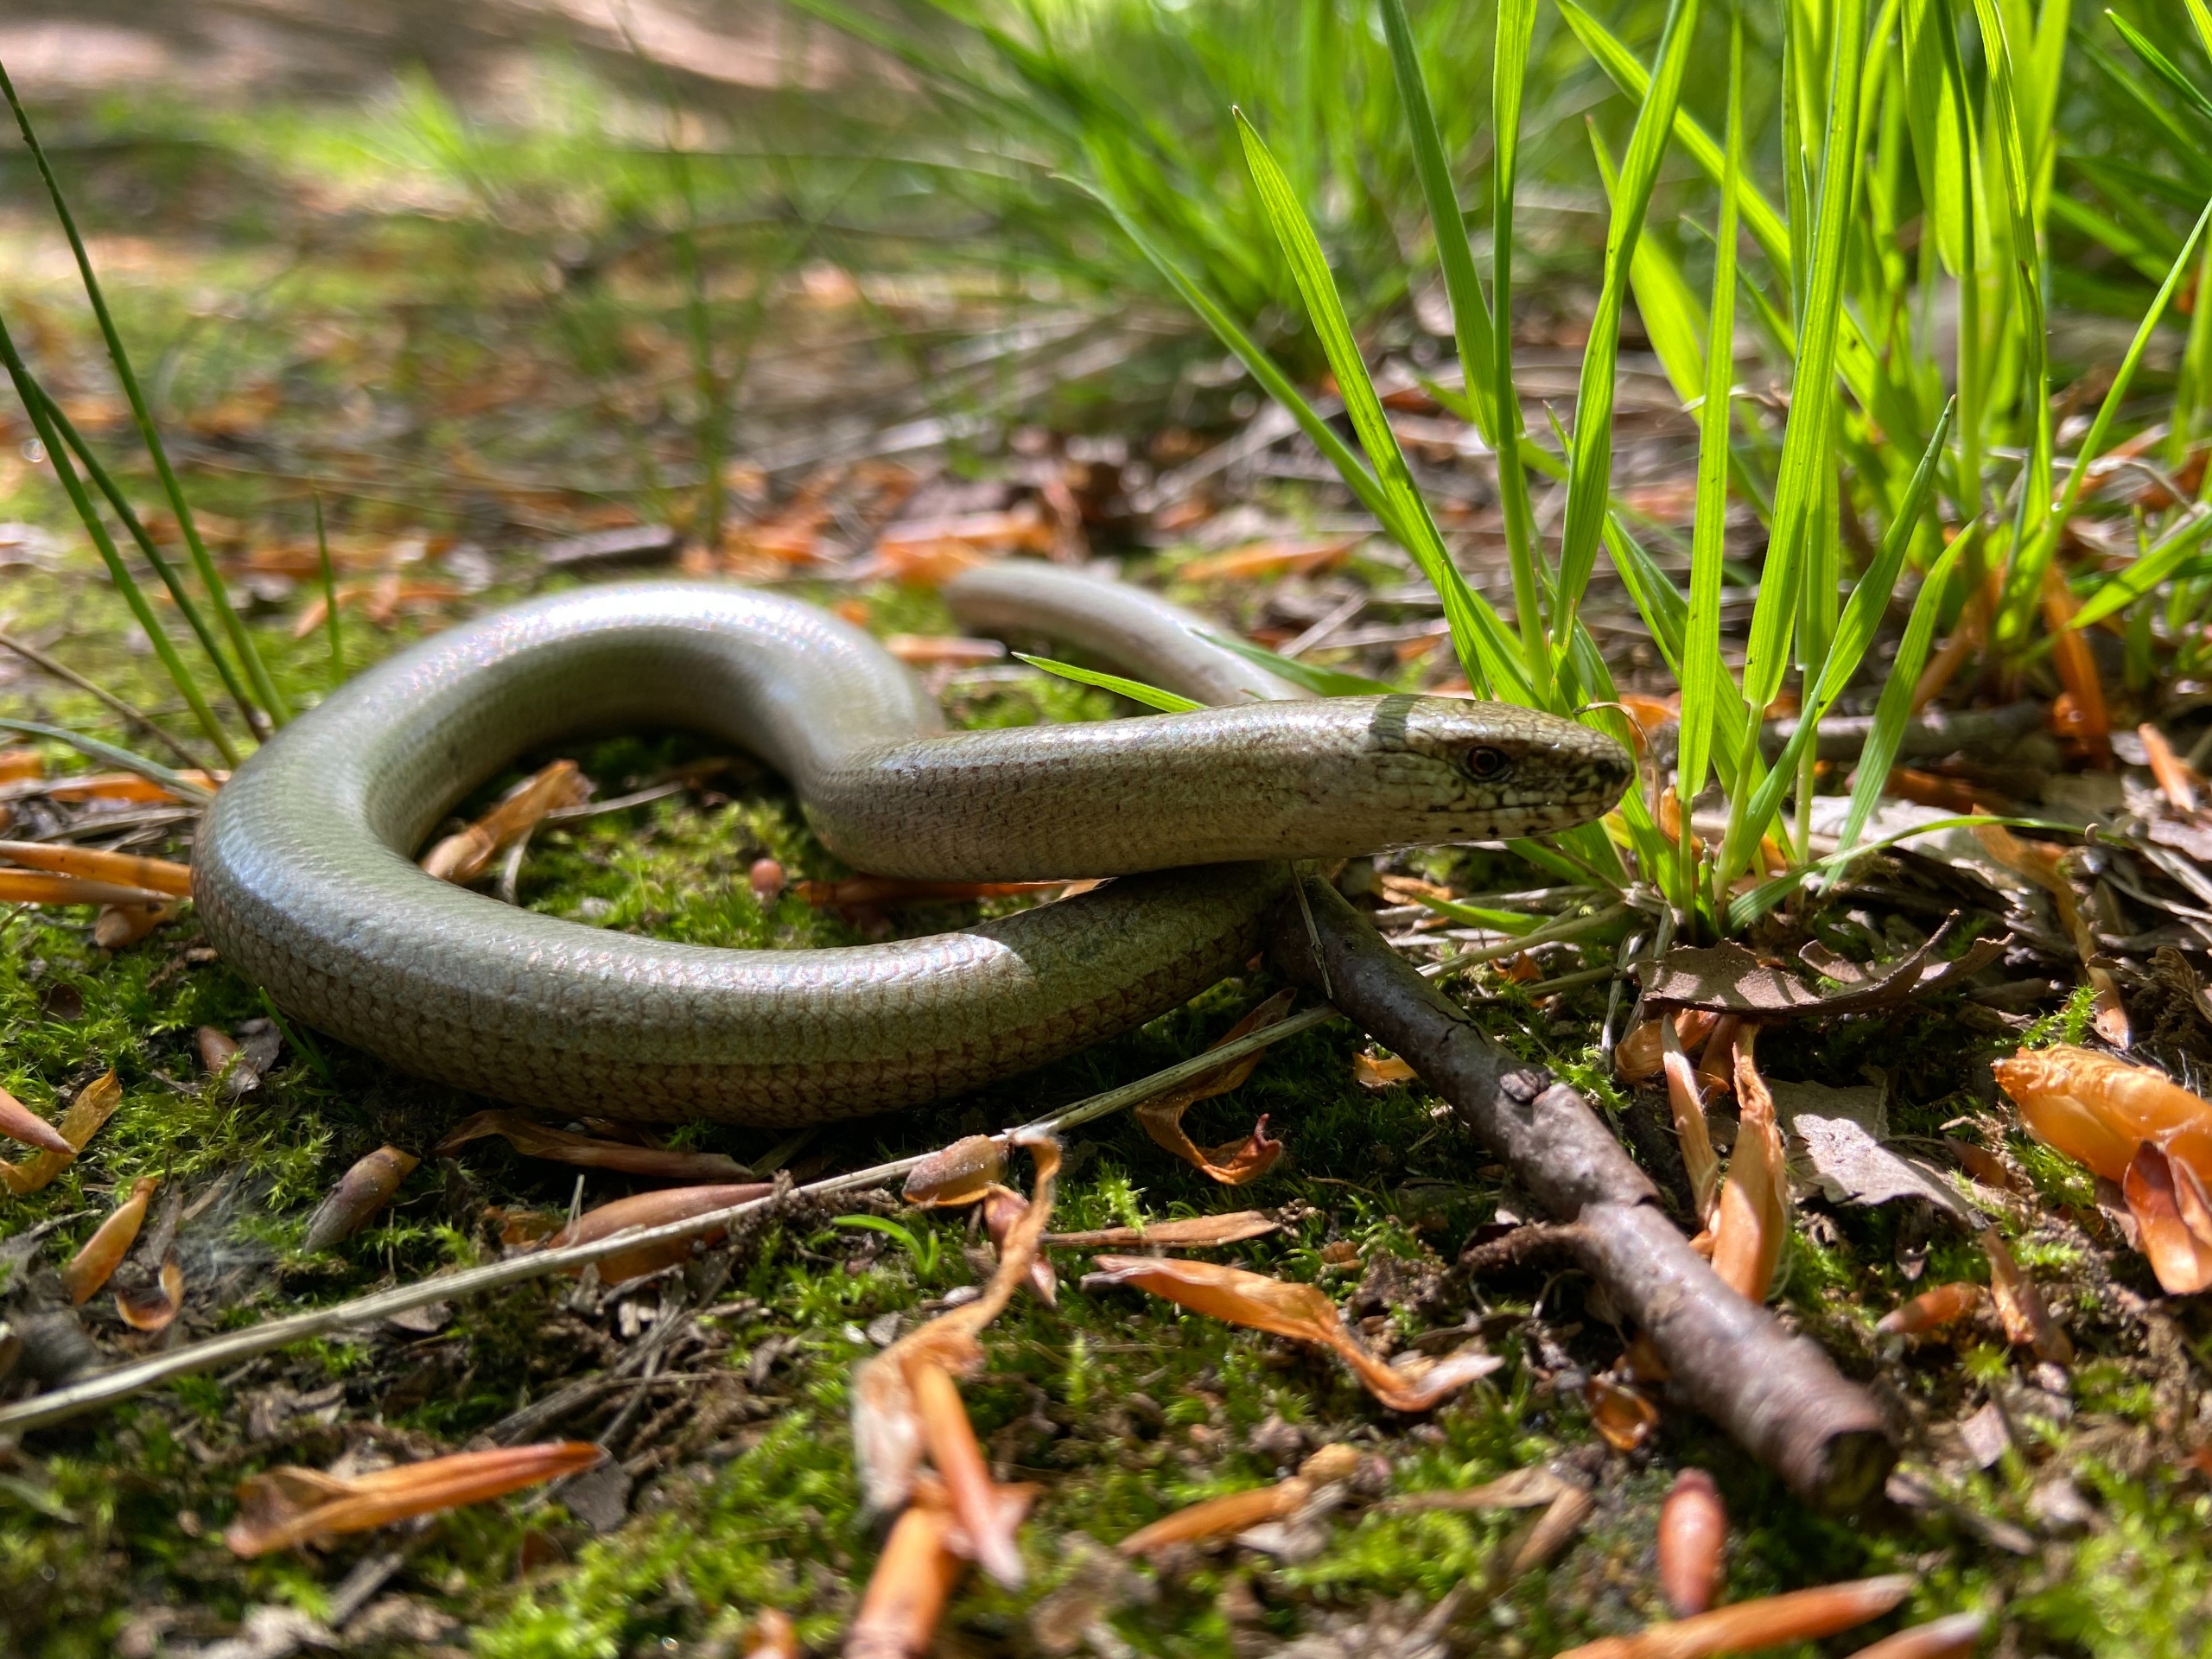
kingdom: Animalia
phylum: Chordata
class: Squamata
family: Anguidae
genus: Anguis
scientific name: Anguis fragilis
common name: Stålorm
